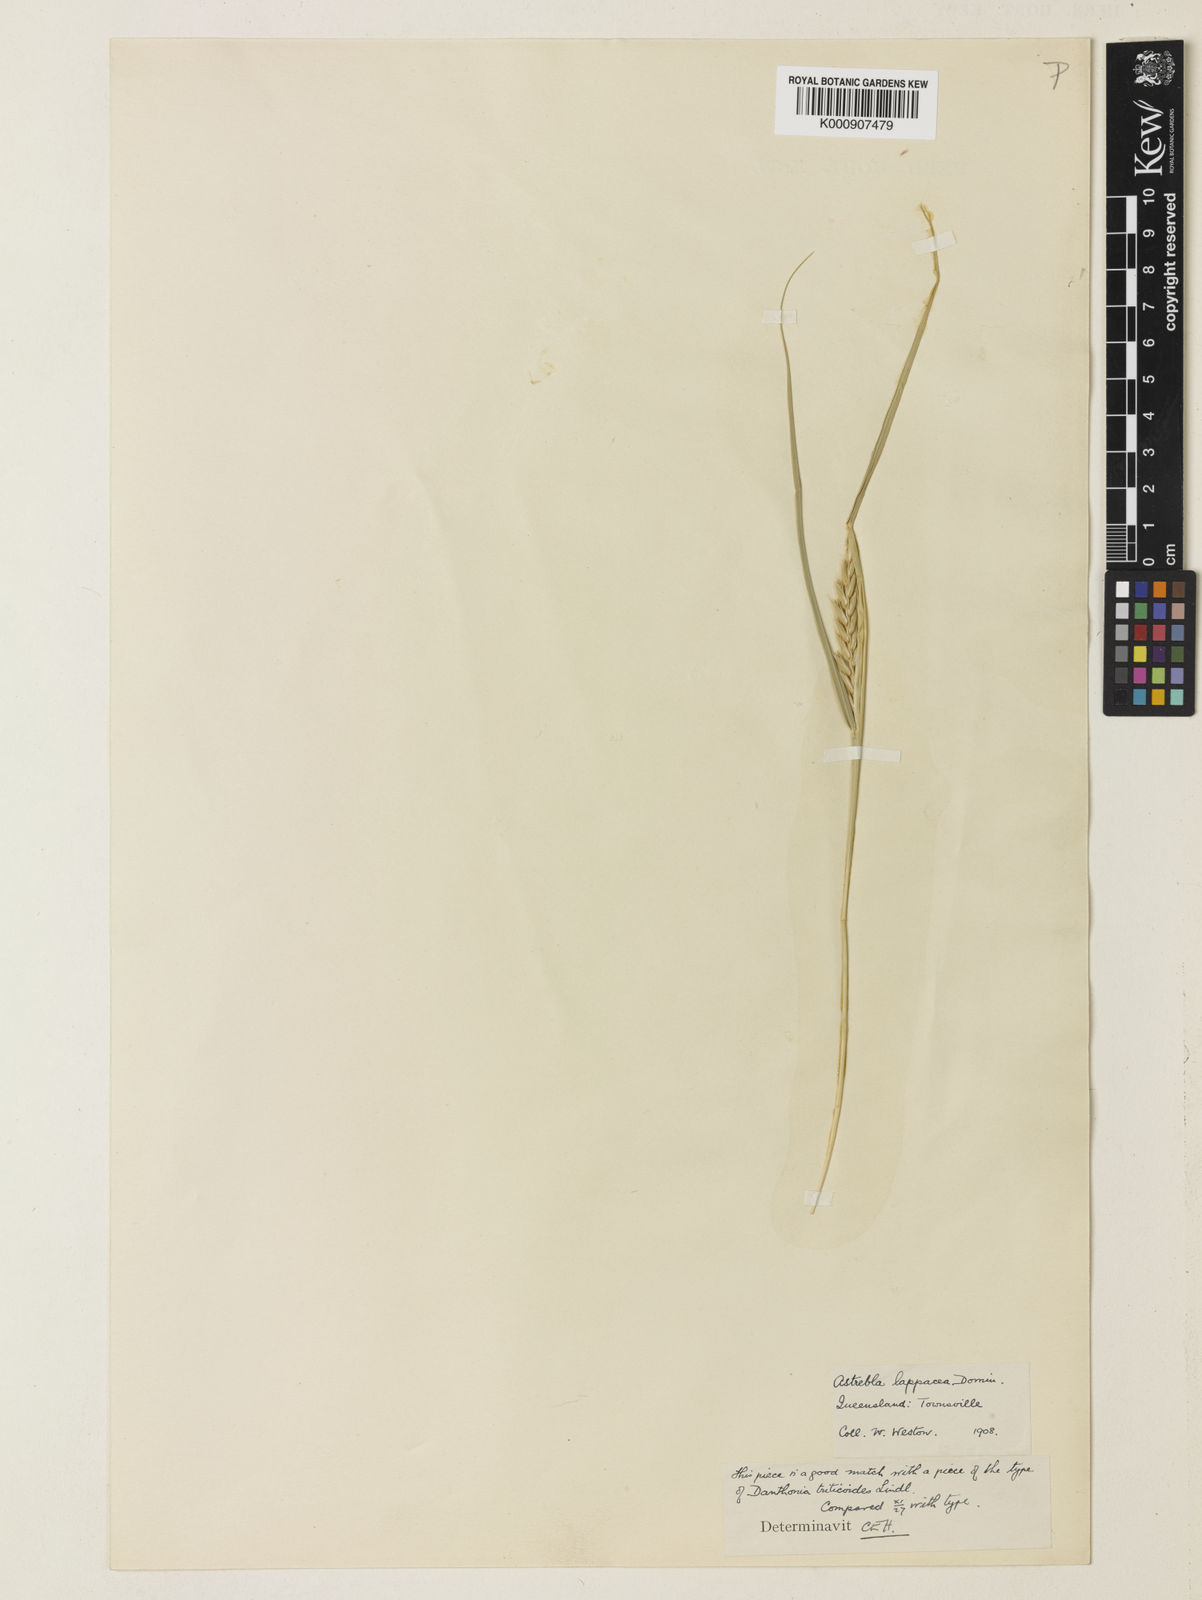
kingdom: Plantae
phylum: Tracheophyta
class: Liliopsida
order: Poales
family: Poaceae
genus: Astrebla
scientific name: Astrebla lappacea
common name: Curly mitchell grass
